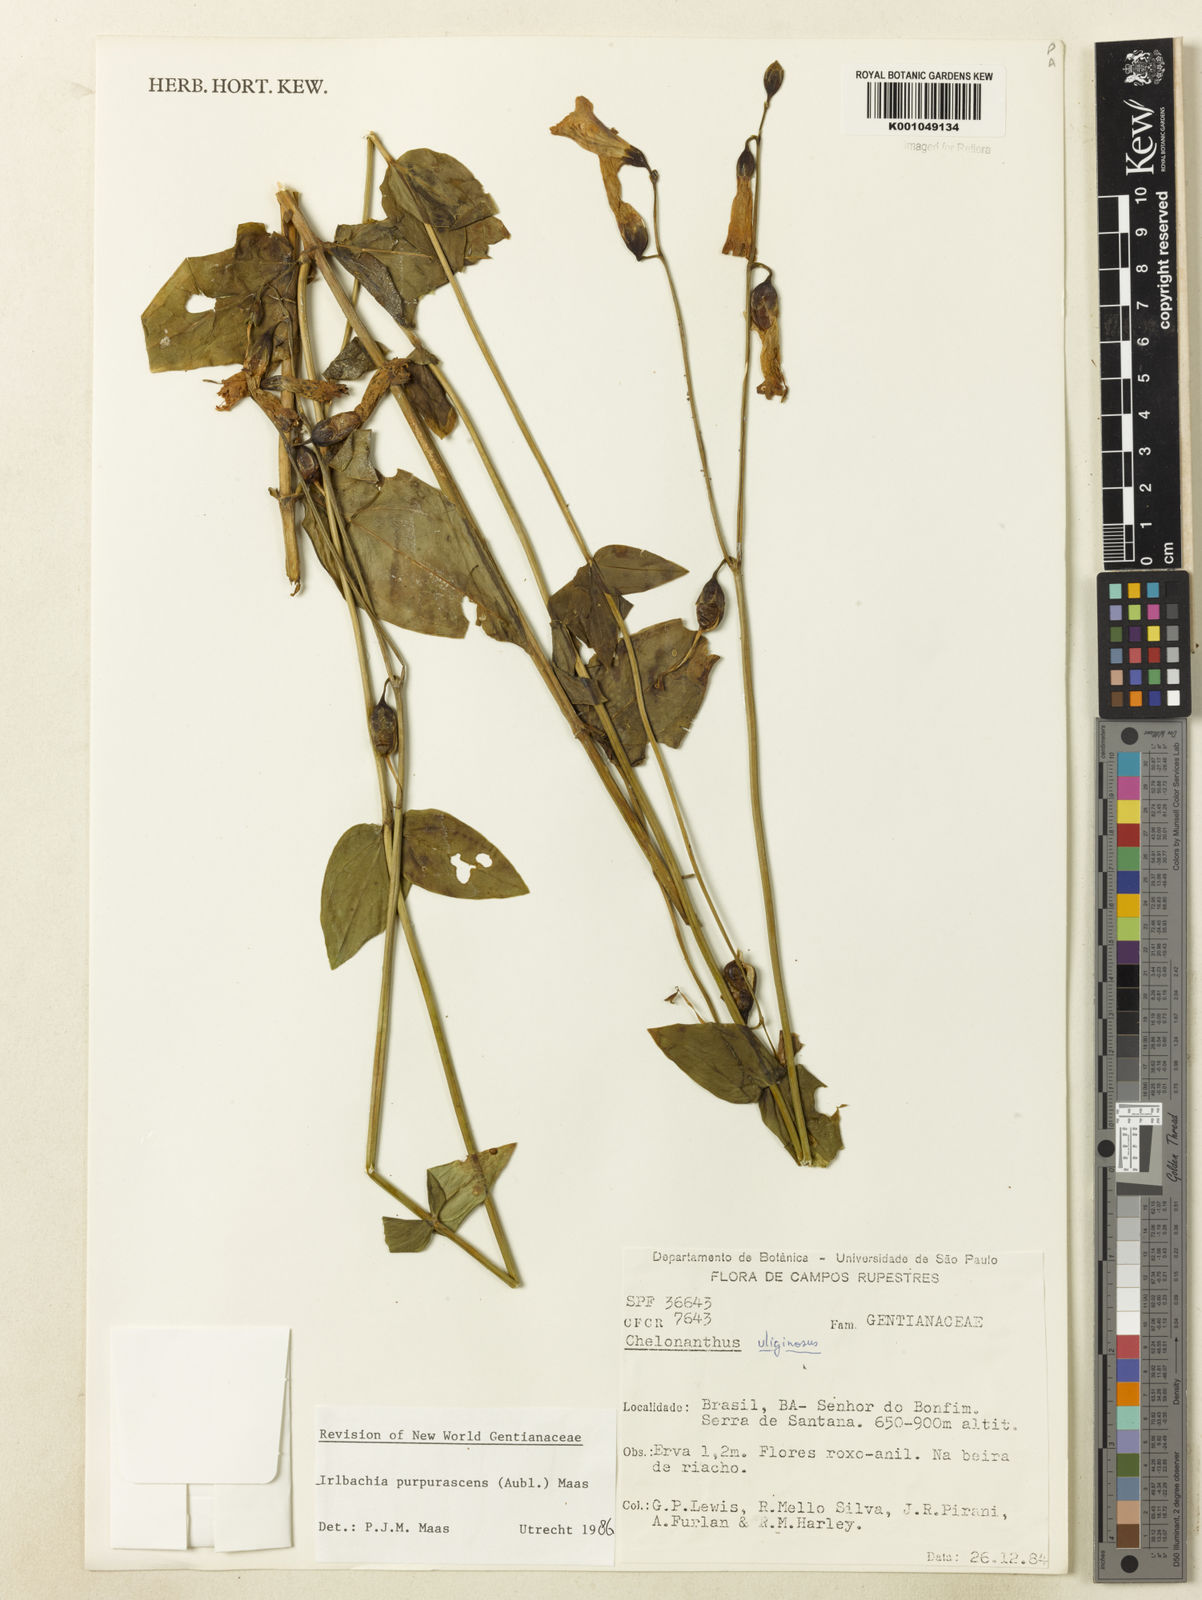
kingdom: Plantae
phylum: Tracheophyta
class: Magnoliopsida
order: Gentianales
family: Gentianaceae
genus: Chelonanthus
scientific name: Chelonanthus purpurascens
